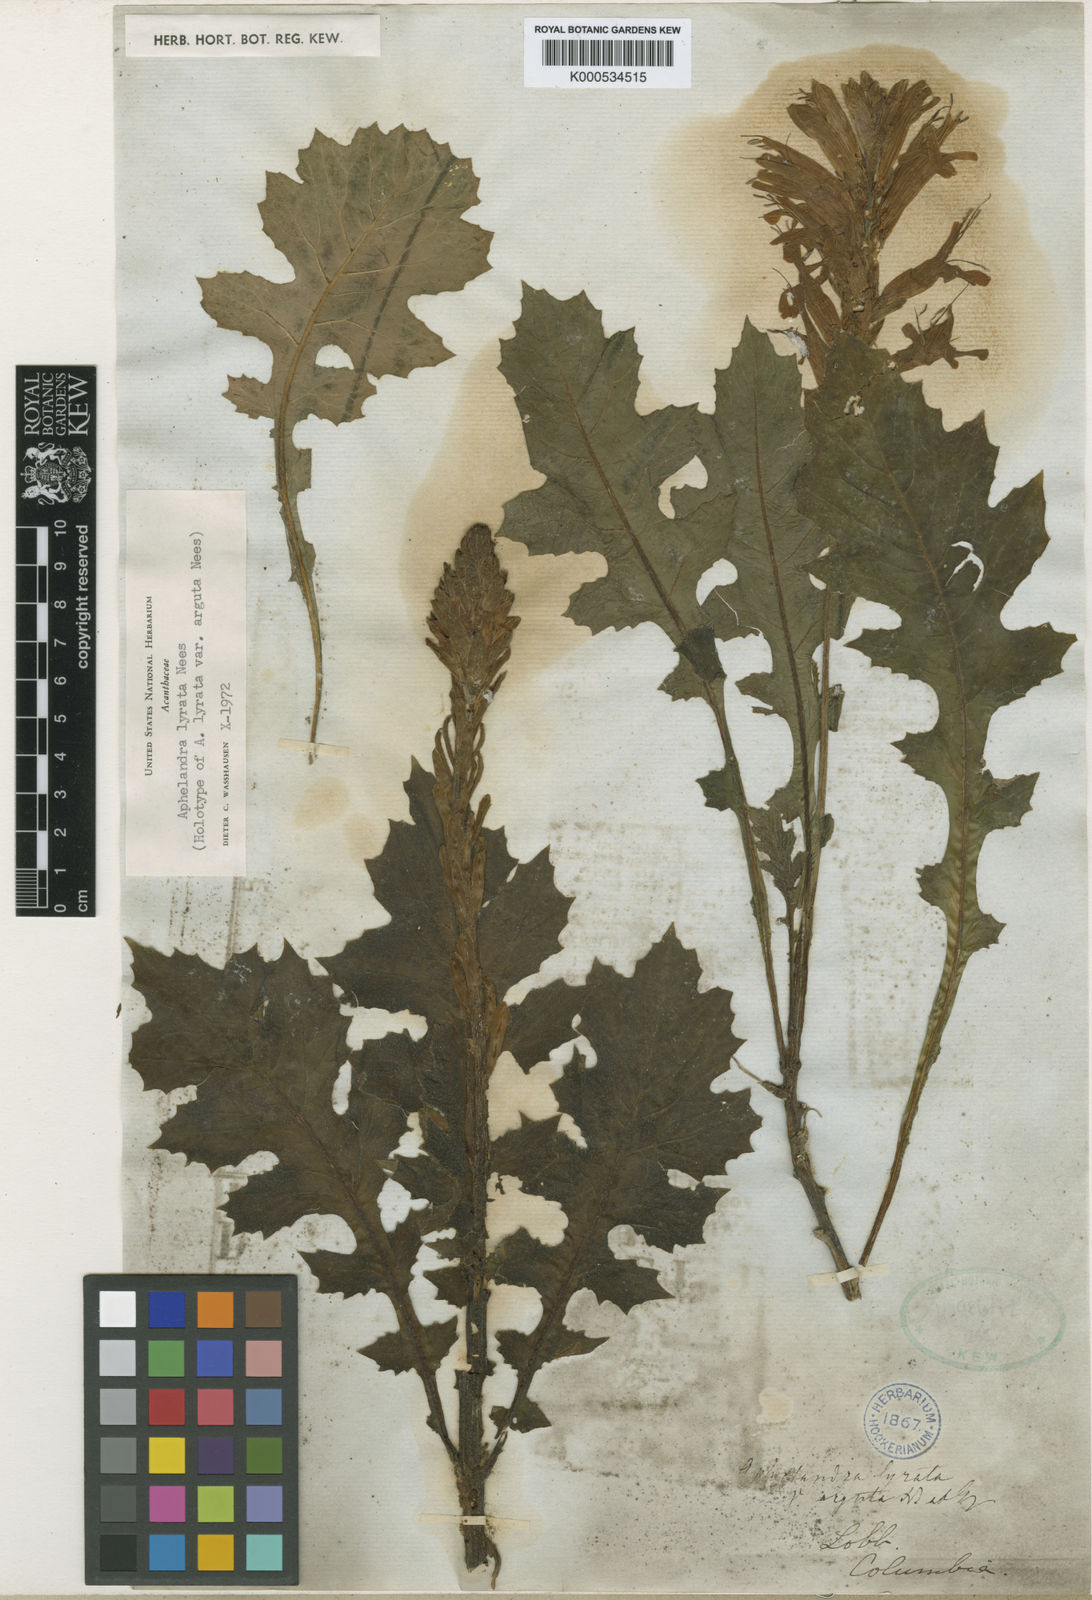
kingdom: Plantae
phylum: Tracheophyta
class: Magnoliopsida
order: Lamiales
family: Acanthaceae
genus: Aphelandra
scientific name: Aphelandra lyrata
